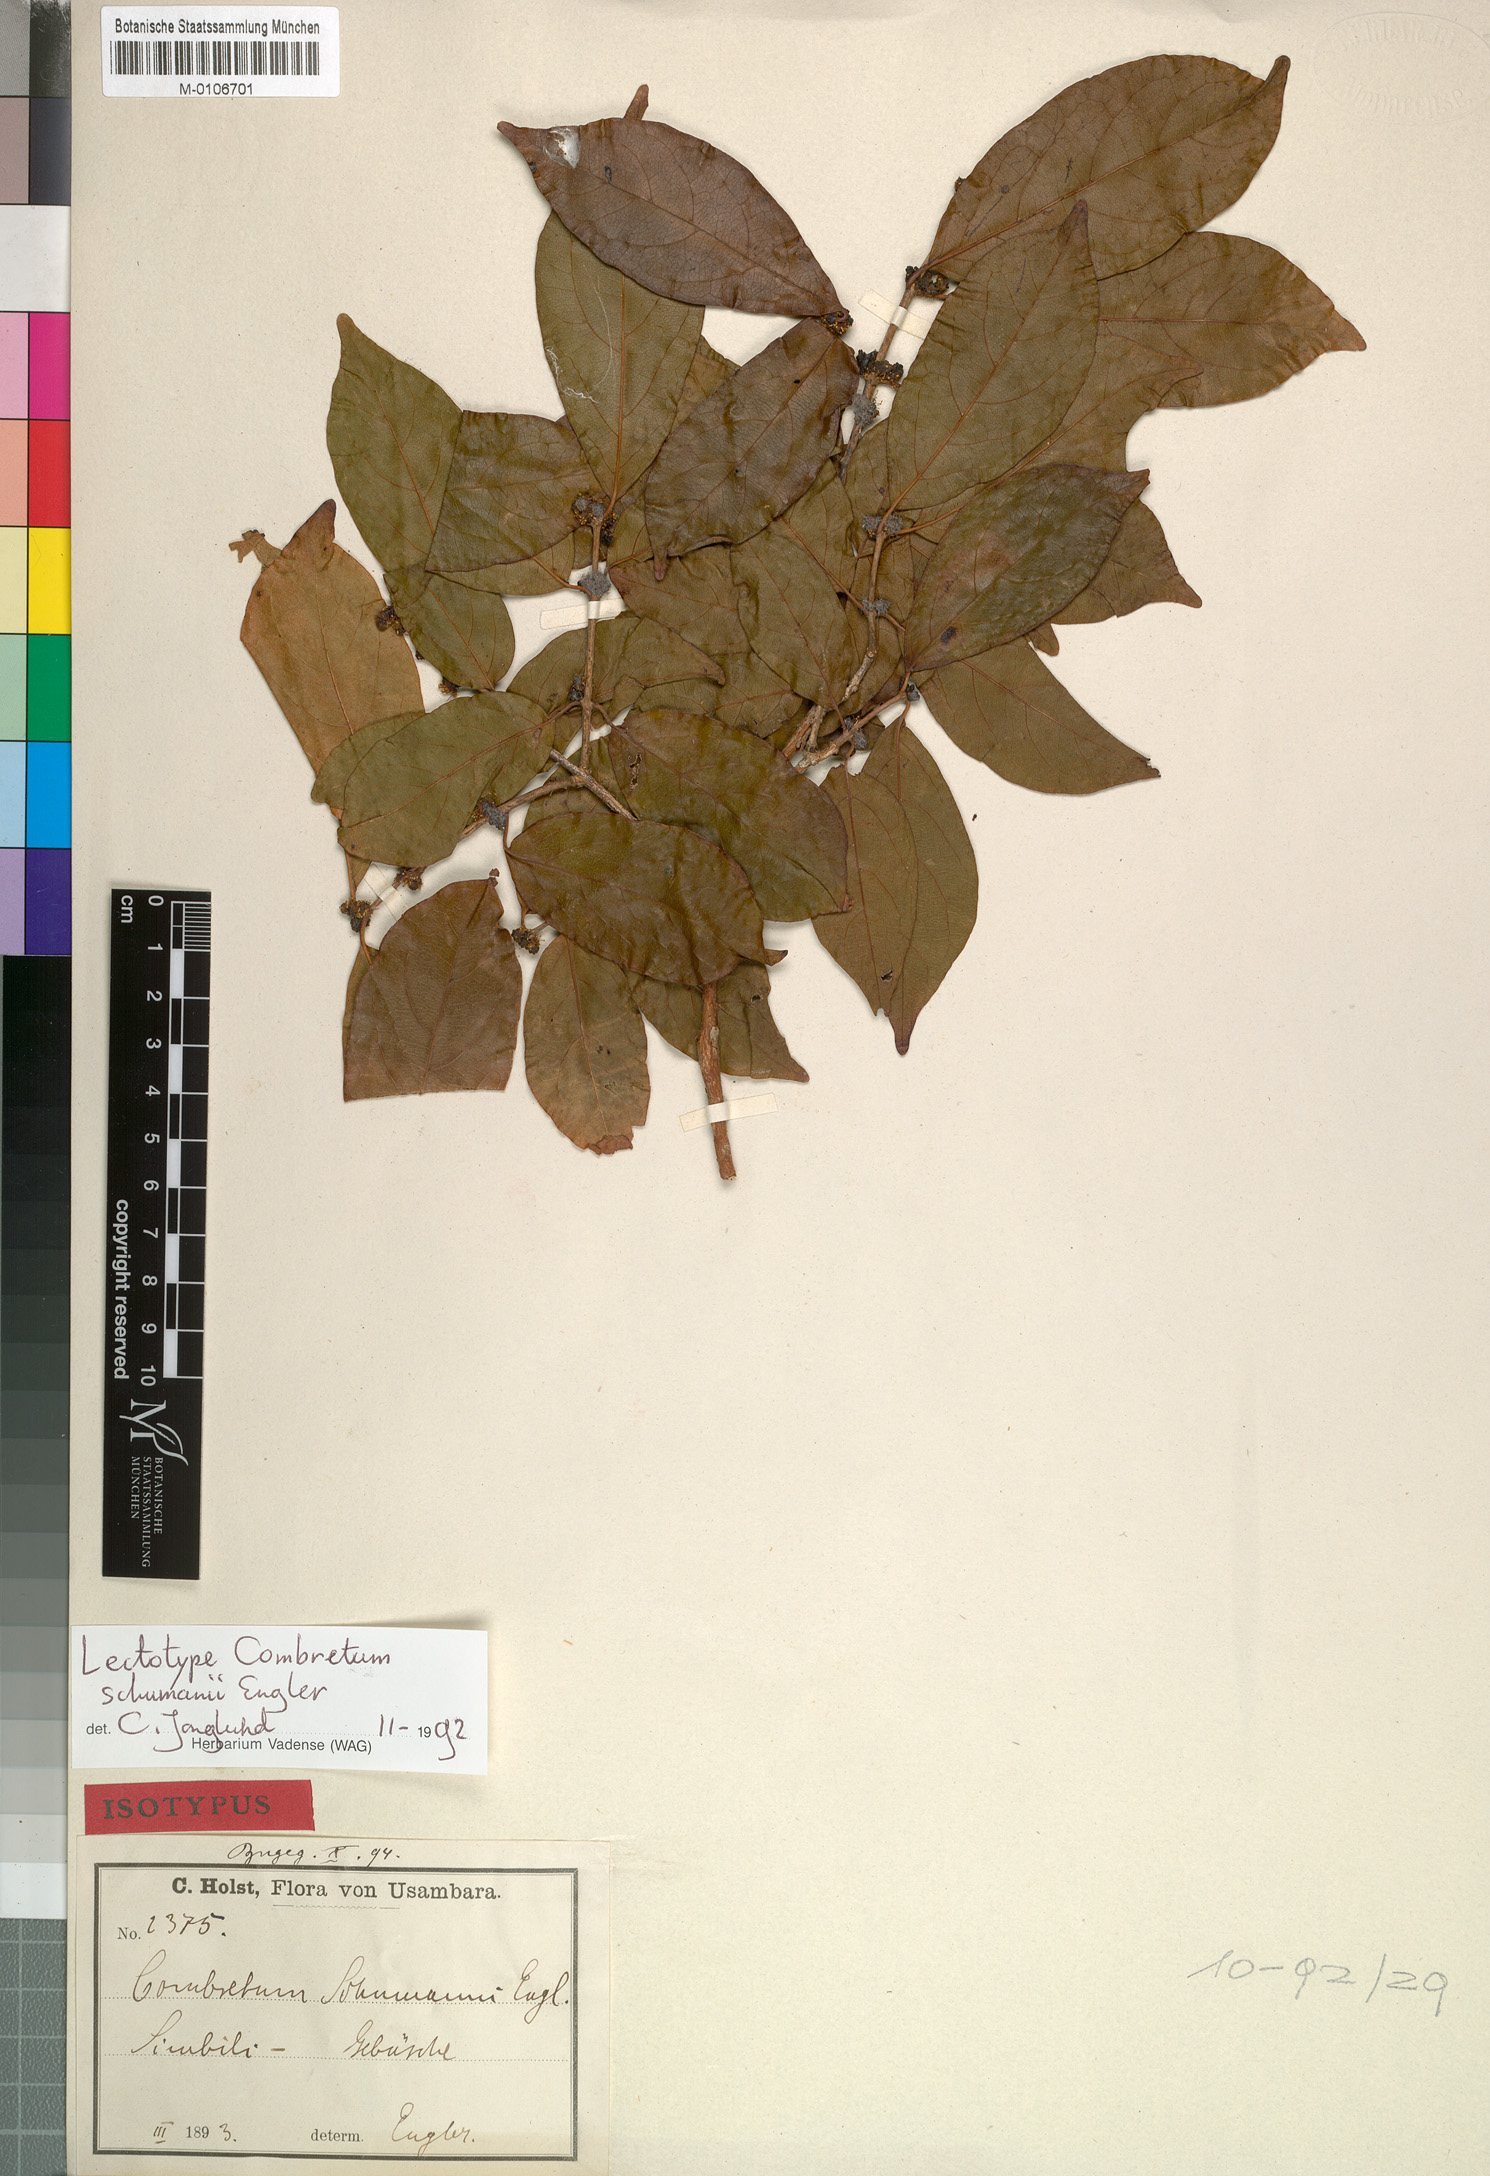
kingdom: Plantae
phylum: Tracheophyta
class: Magnoliopsida
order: Myrtales
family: Combretaceae
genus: Combretum
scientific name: Combretum schumannii
